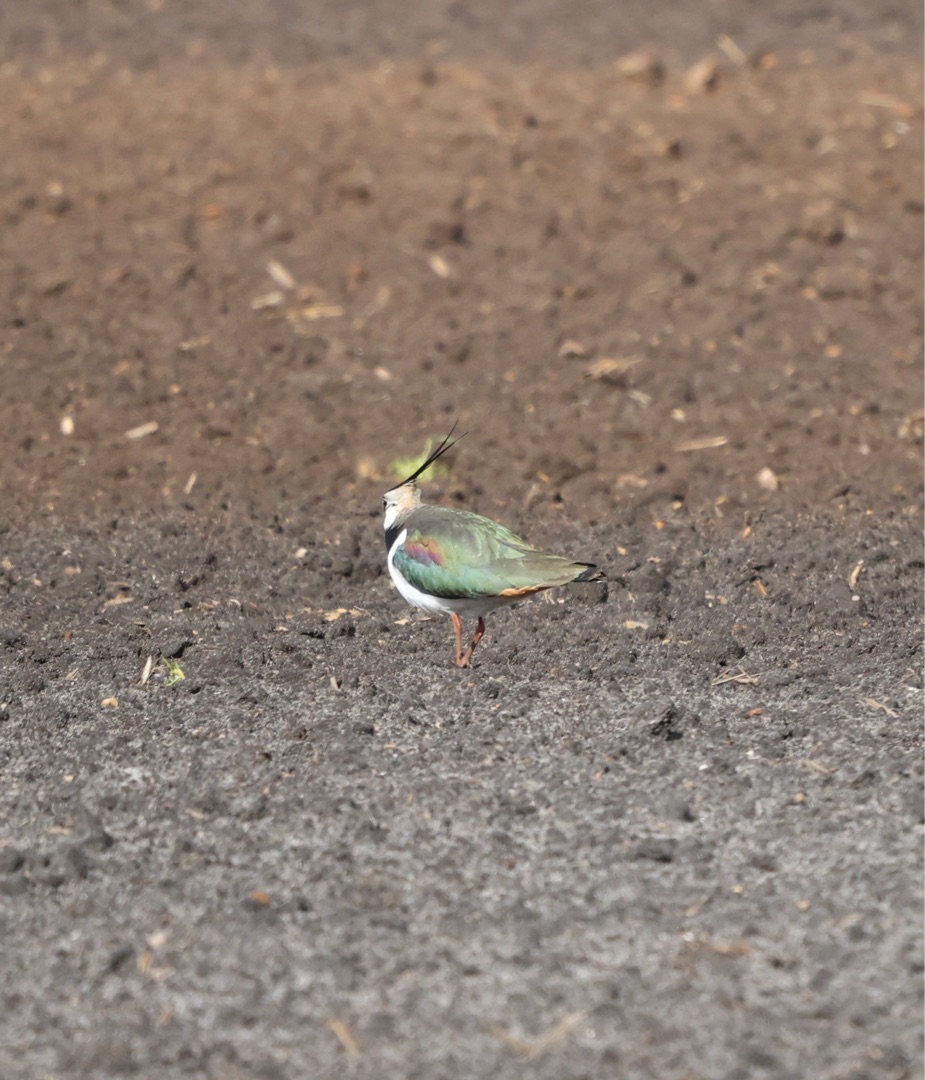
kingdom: Animalia
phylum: Chordata
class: Aves
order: Charadriiformes
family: Charadriidae
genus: Vanellus
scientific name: Vanellus vanellus
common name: Vibe
